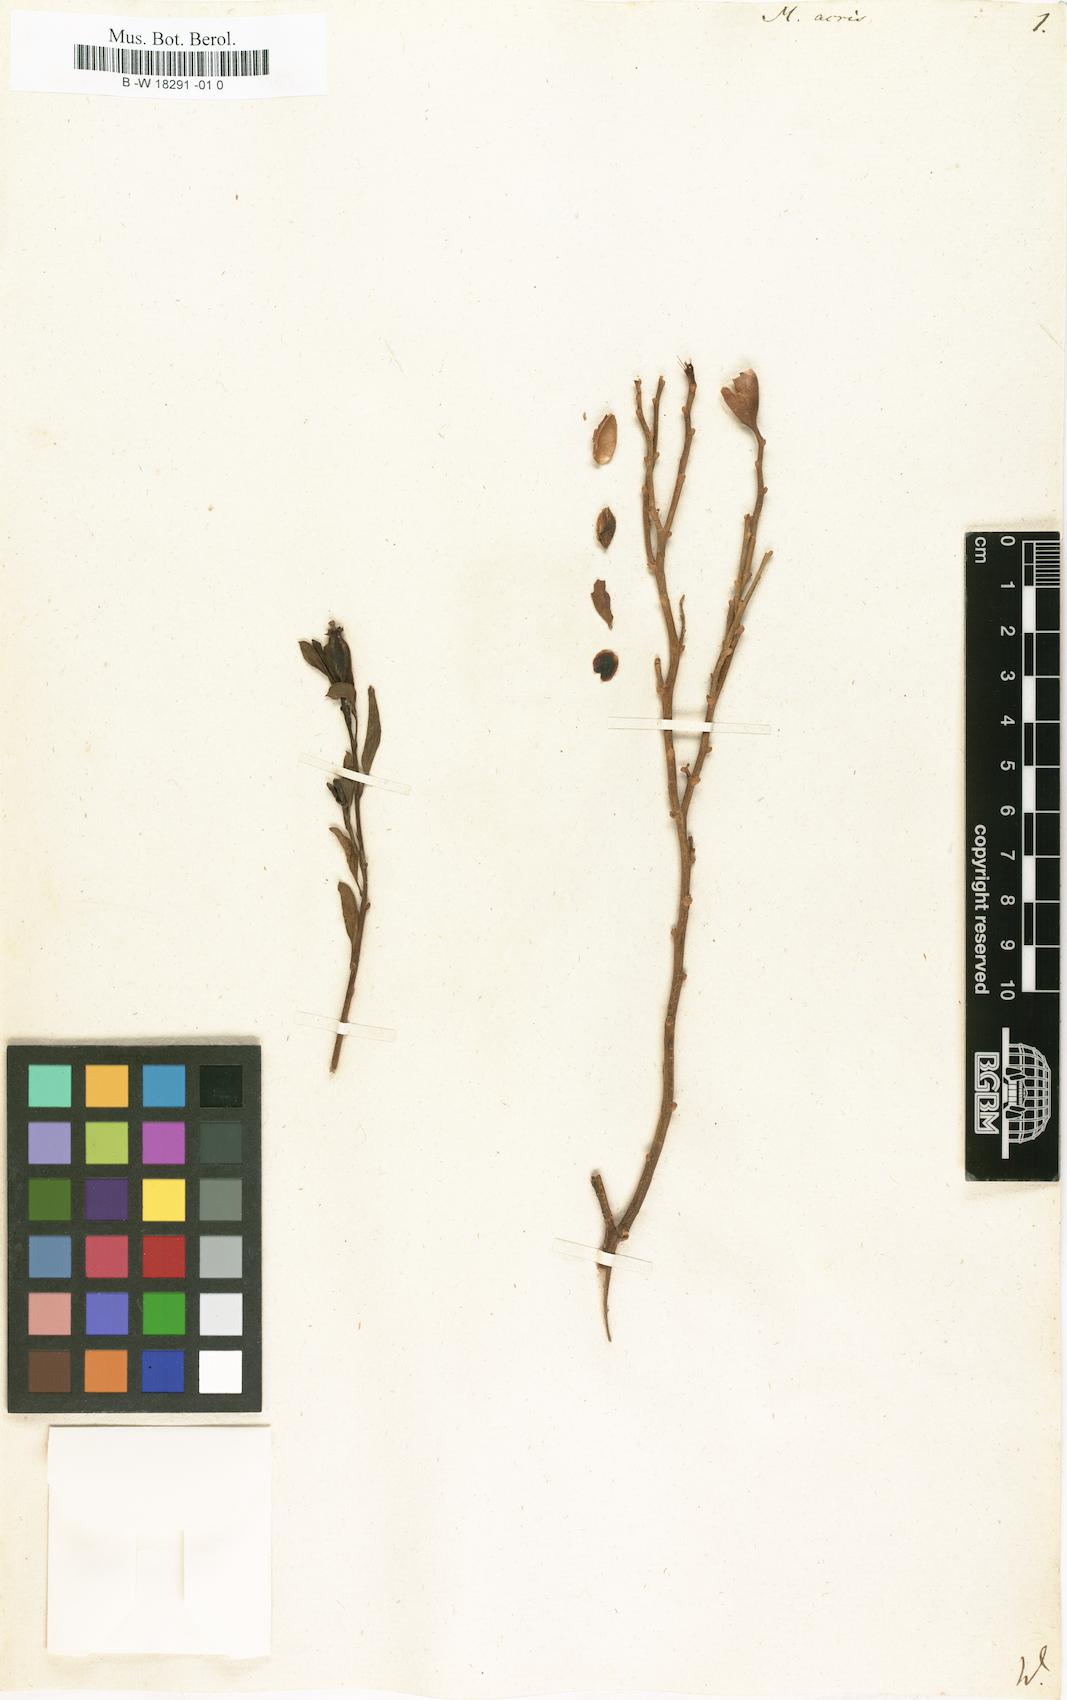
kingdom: Plantae
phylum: Tracheophyta
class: Magnoliopsida
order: Solanales
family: Montiniaceae
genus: Montinia
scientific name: Montinia caryophyllacea
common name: Wild clove-bush
